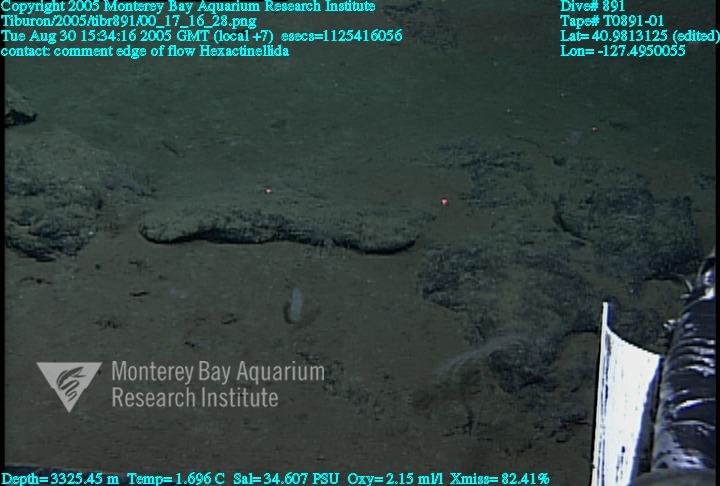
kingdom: Animalia
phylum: Porifera
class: Hexactinellida
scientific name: Hexactinellida
